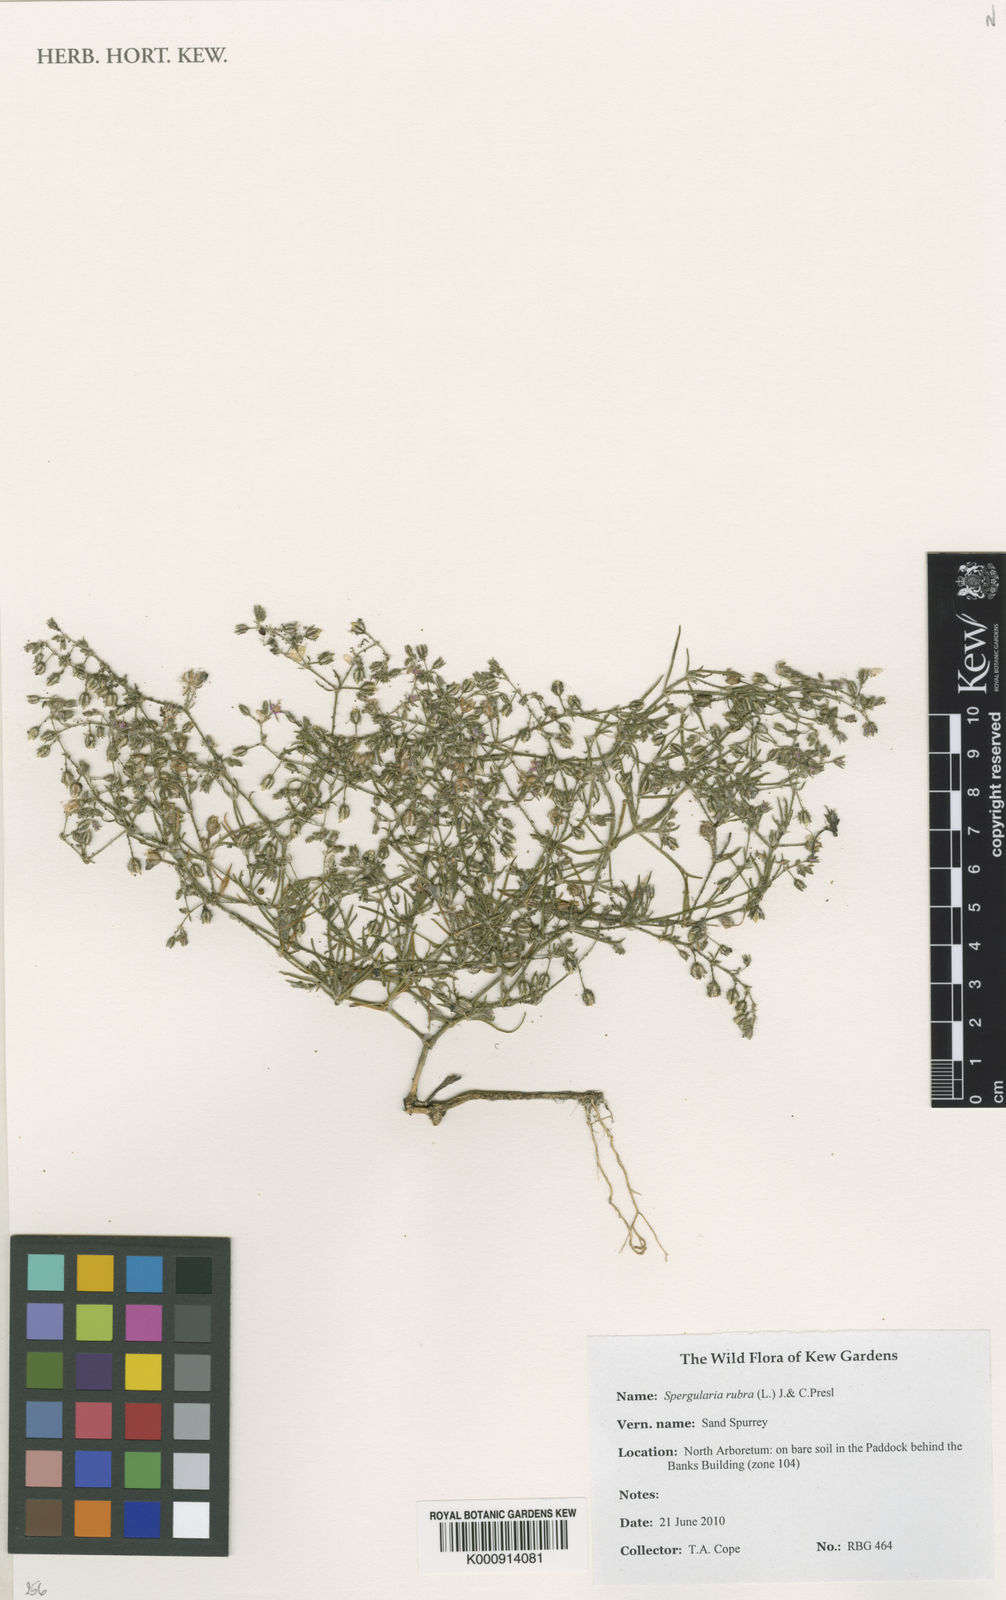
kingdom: Plantae
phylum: Tracheophyta
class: Magnoliopsida
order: Caryophyllales
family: Caryophyllaceae
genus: Spergularia
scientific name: Spergularia rubra
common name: Red sand-spurrey
